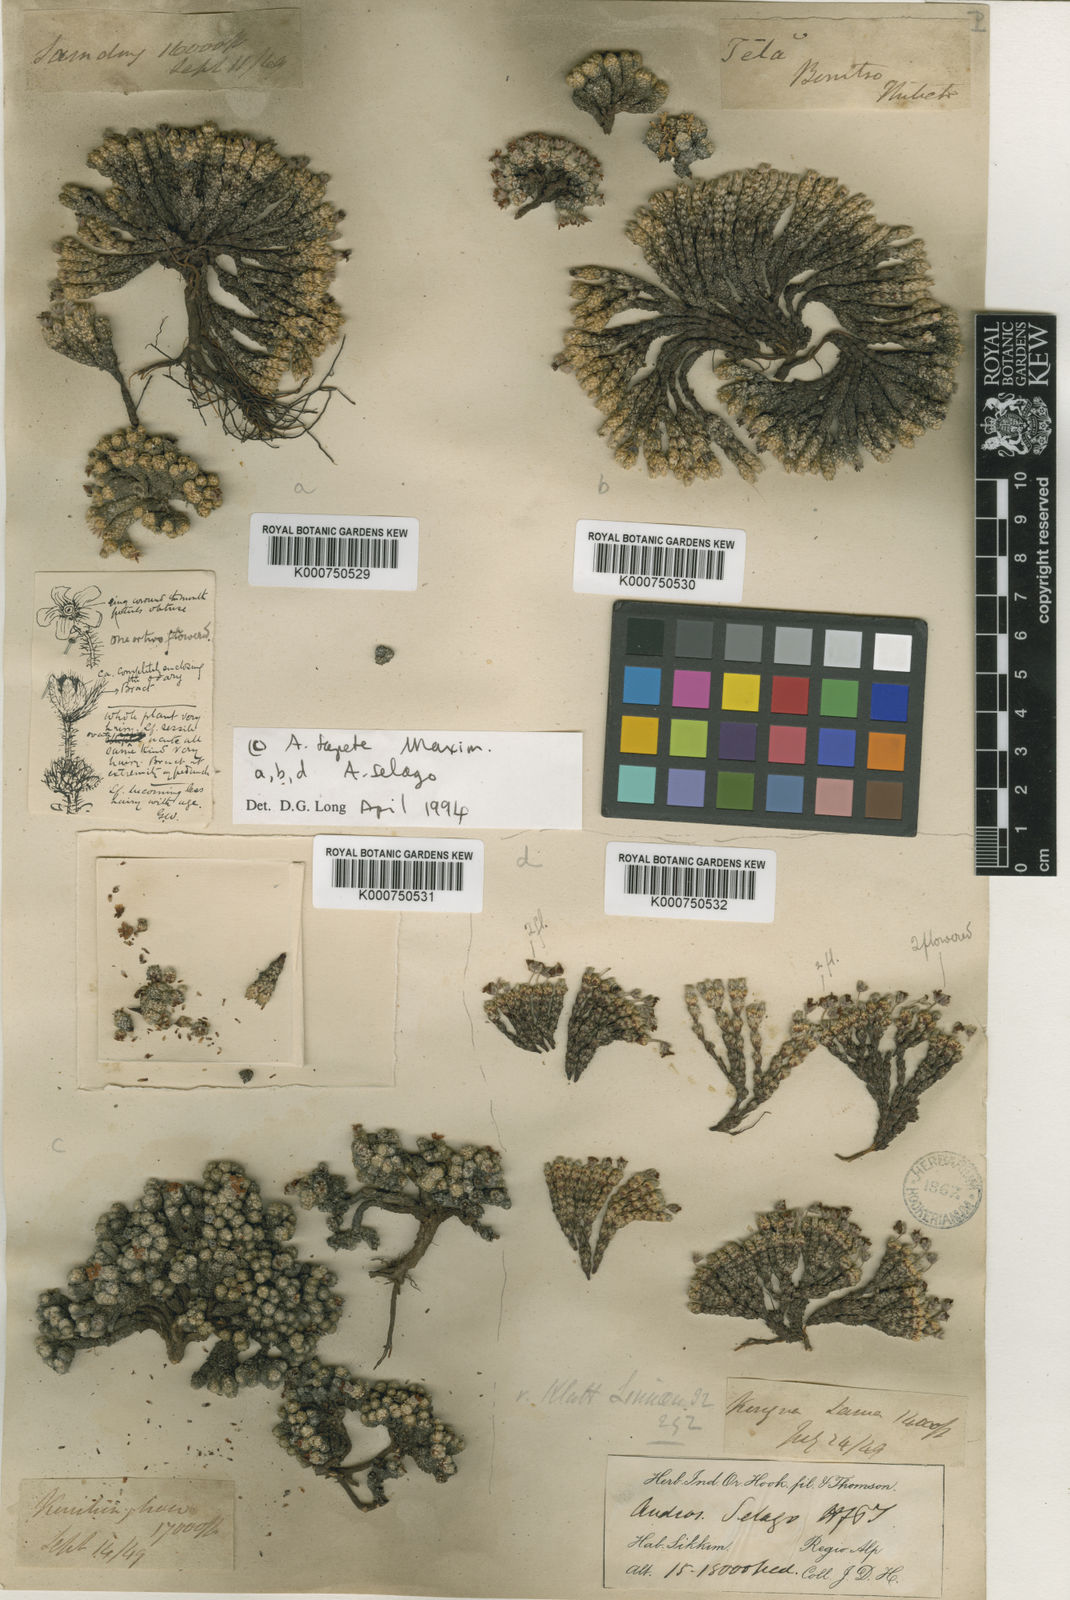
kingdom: Plantae
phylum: Tracheophyta
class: Magnoliopsida
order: Ericales
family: Primulaceae
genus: Androsace
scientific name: Androsace selago
